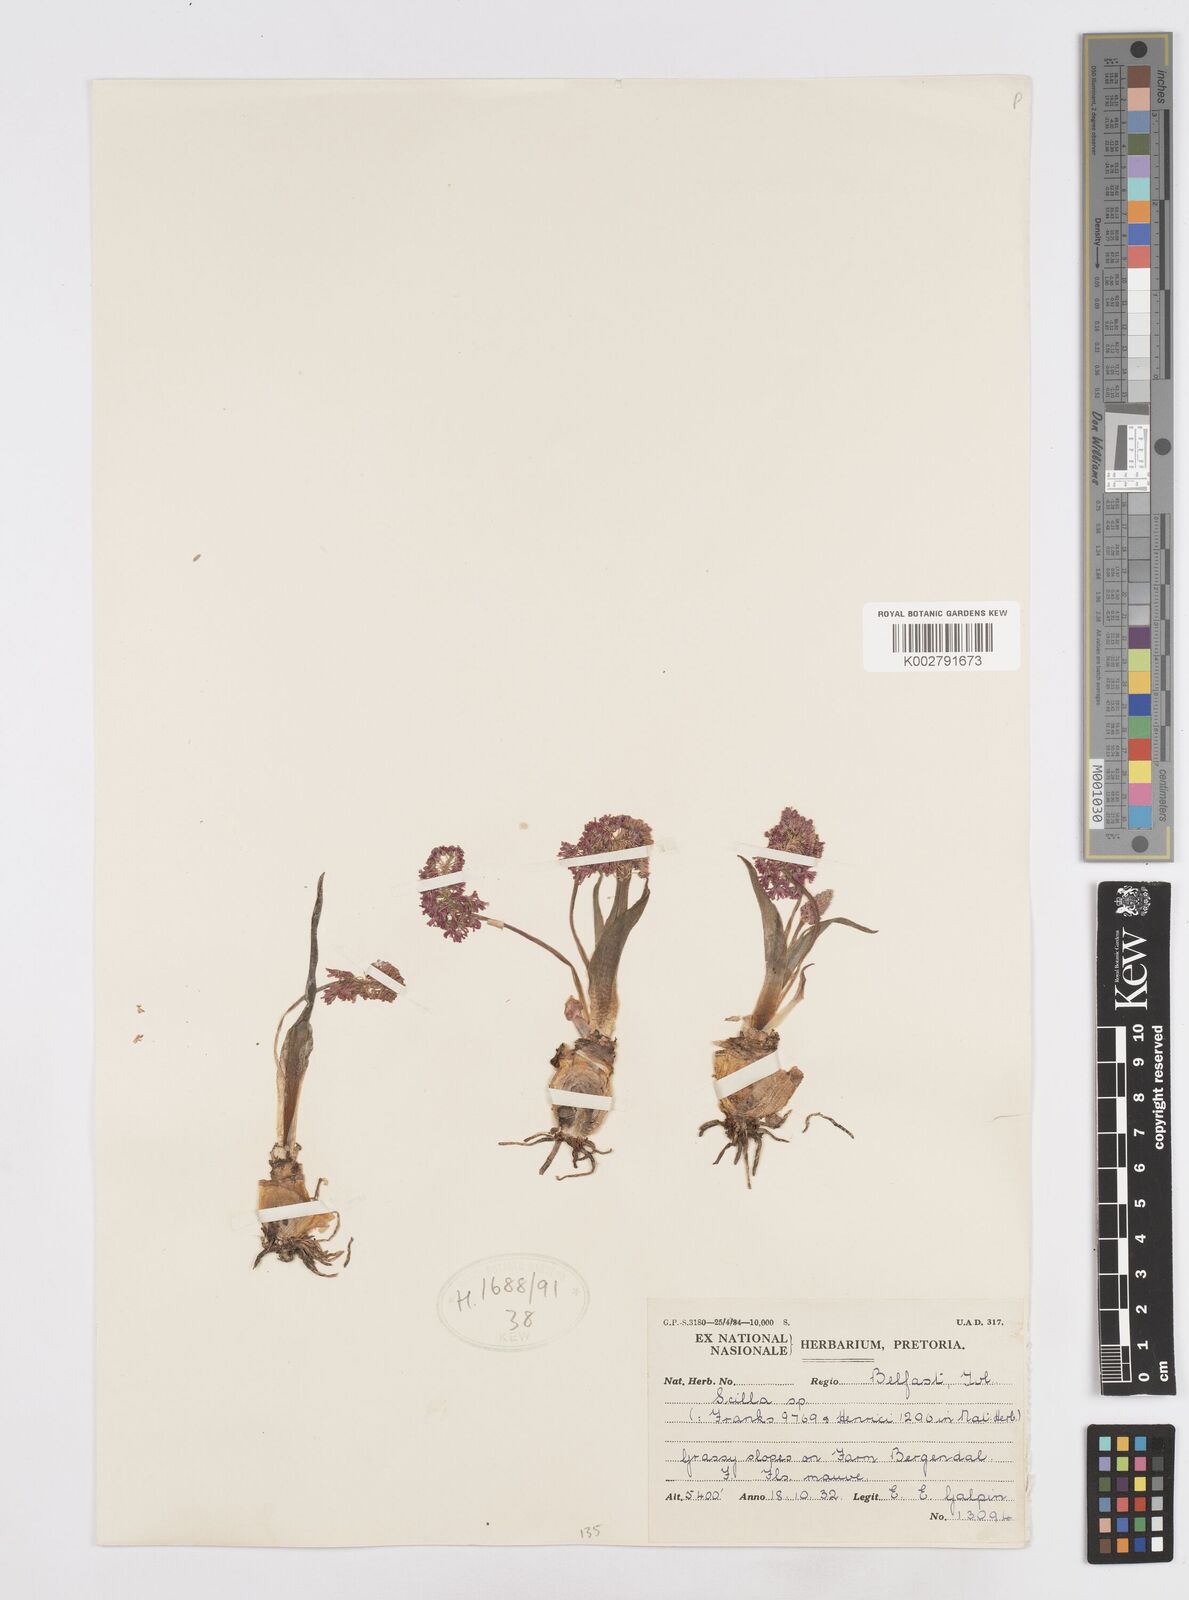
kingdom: Plantae
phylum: Tracheophyta
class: Liliopsida
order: Asparagales
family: Asparagaceae
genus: Scilla
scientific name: Scilla
